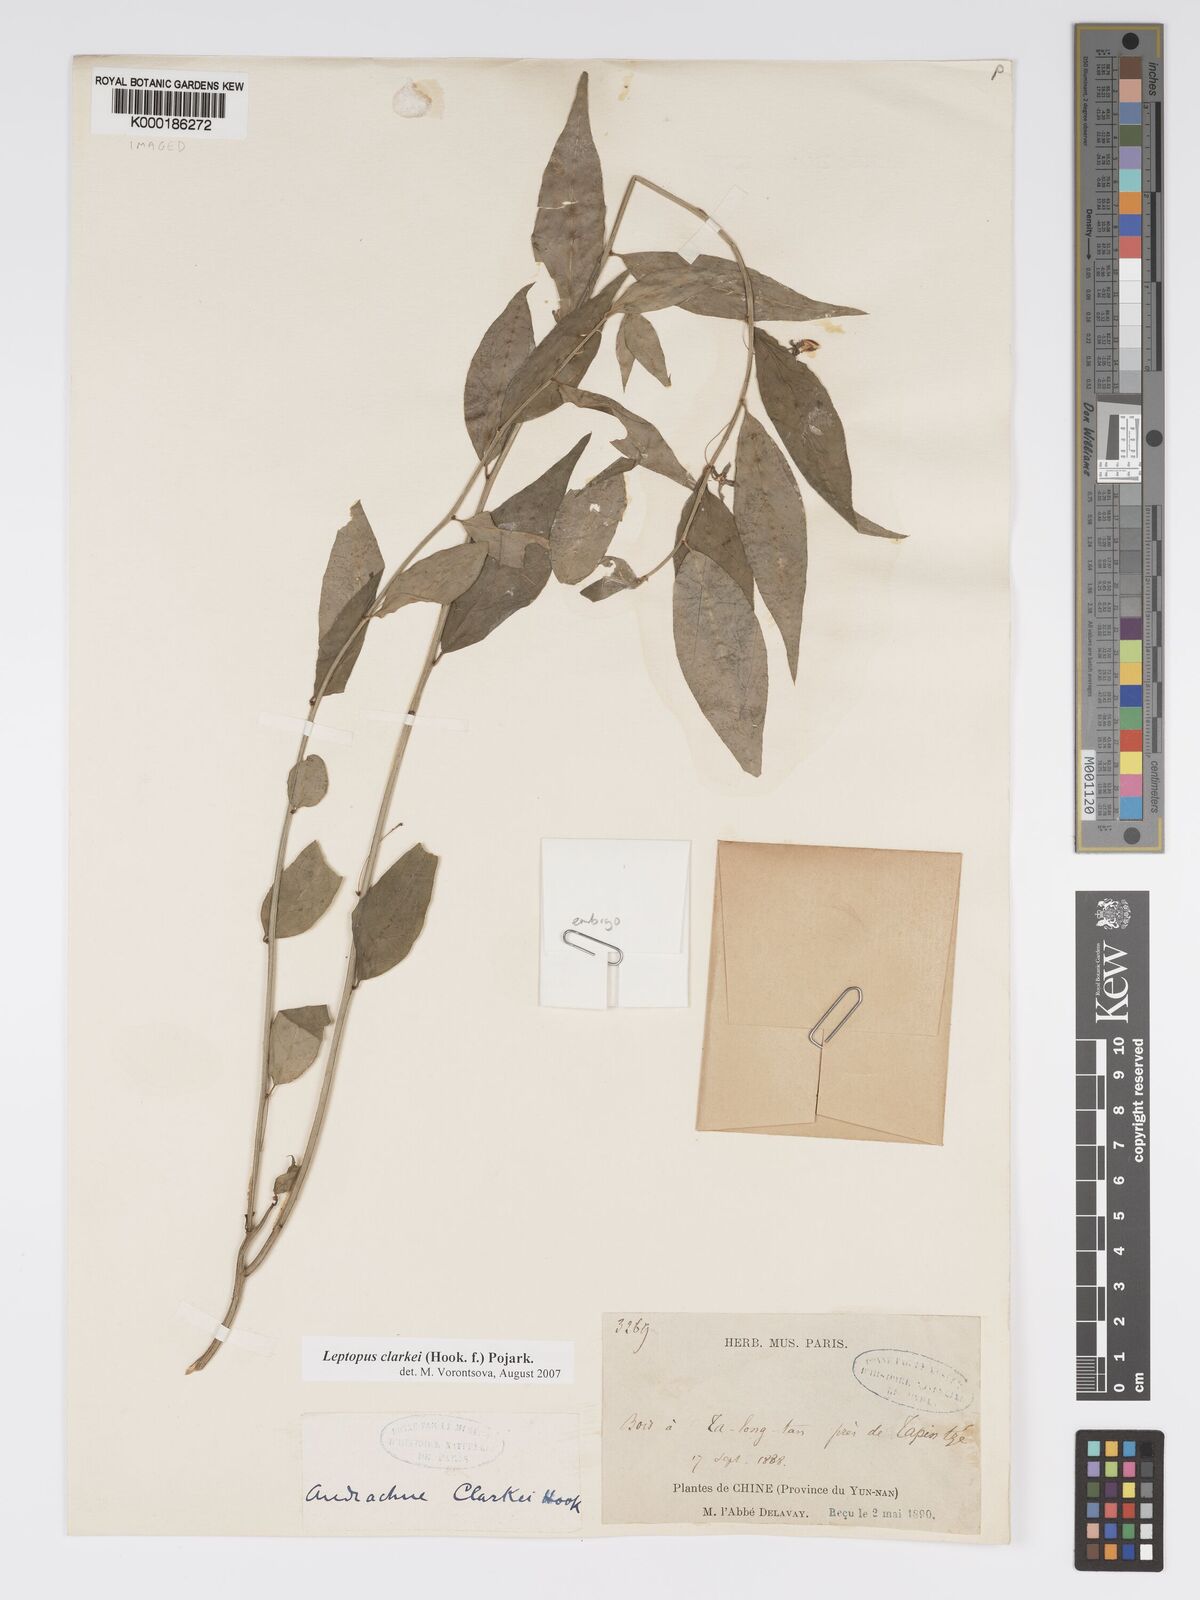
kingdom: Plantae
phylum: Tracheophyta
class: Magnoliopsida
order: Malpighiales
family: Phyllanthaceae
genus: Leptopus
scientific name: Leptopus clarkei
